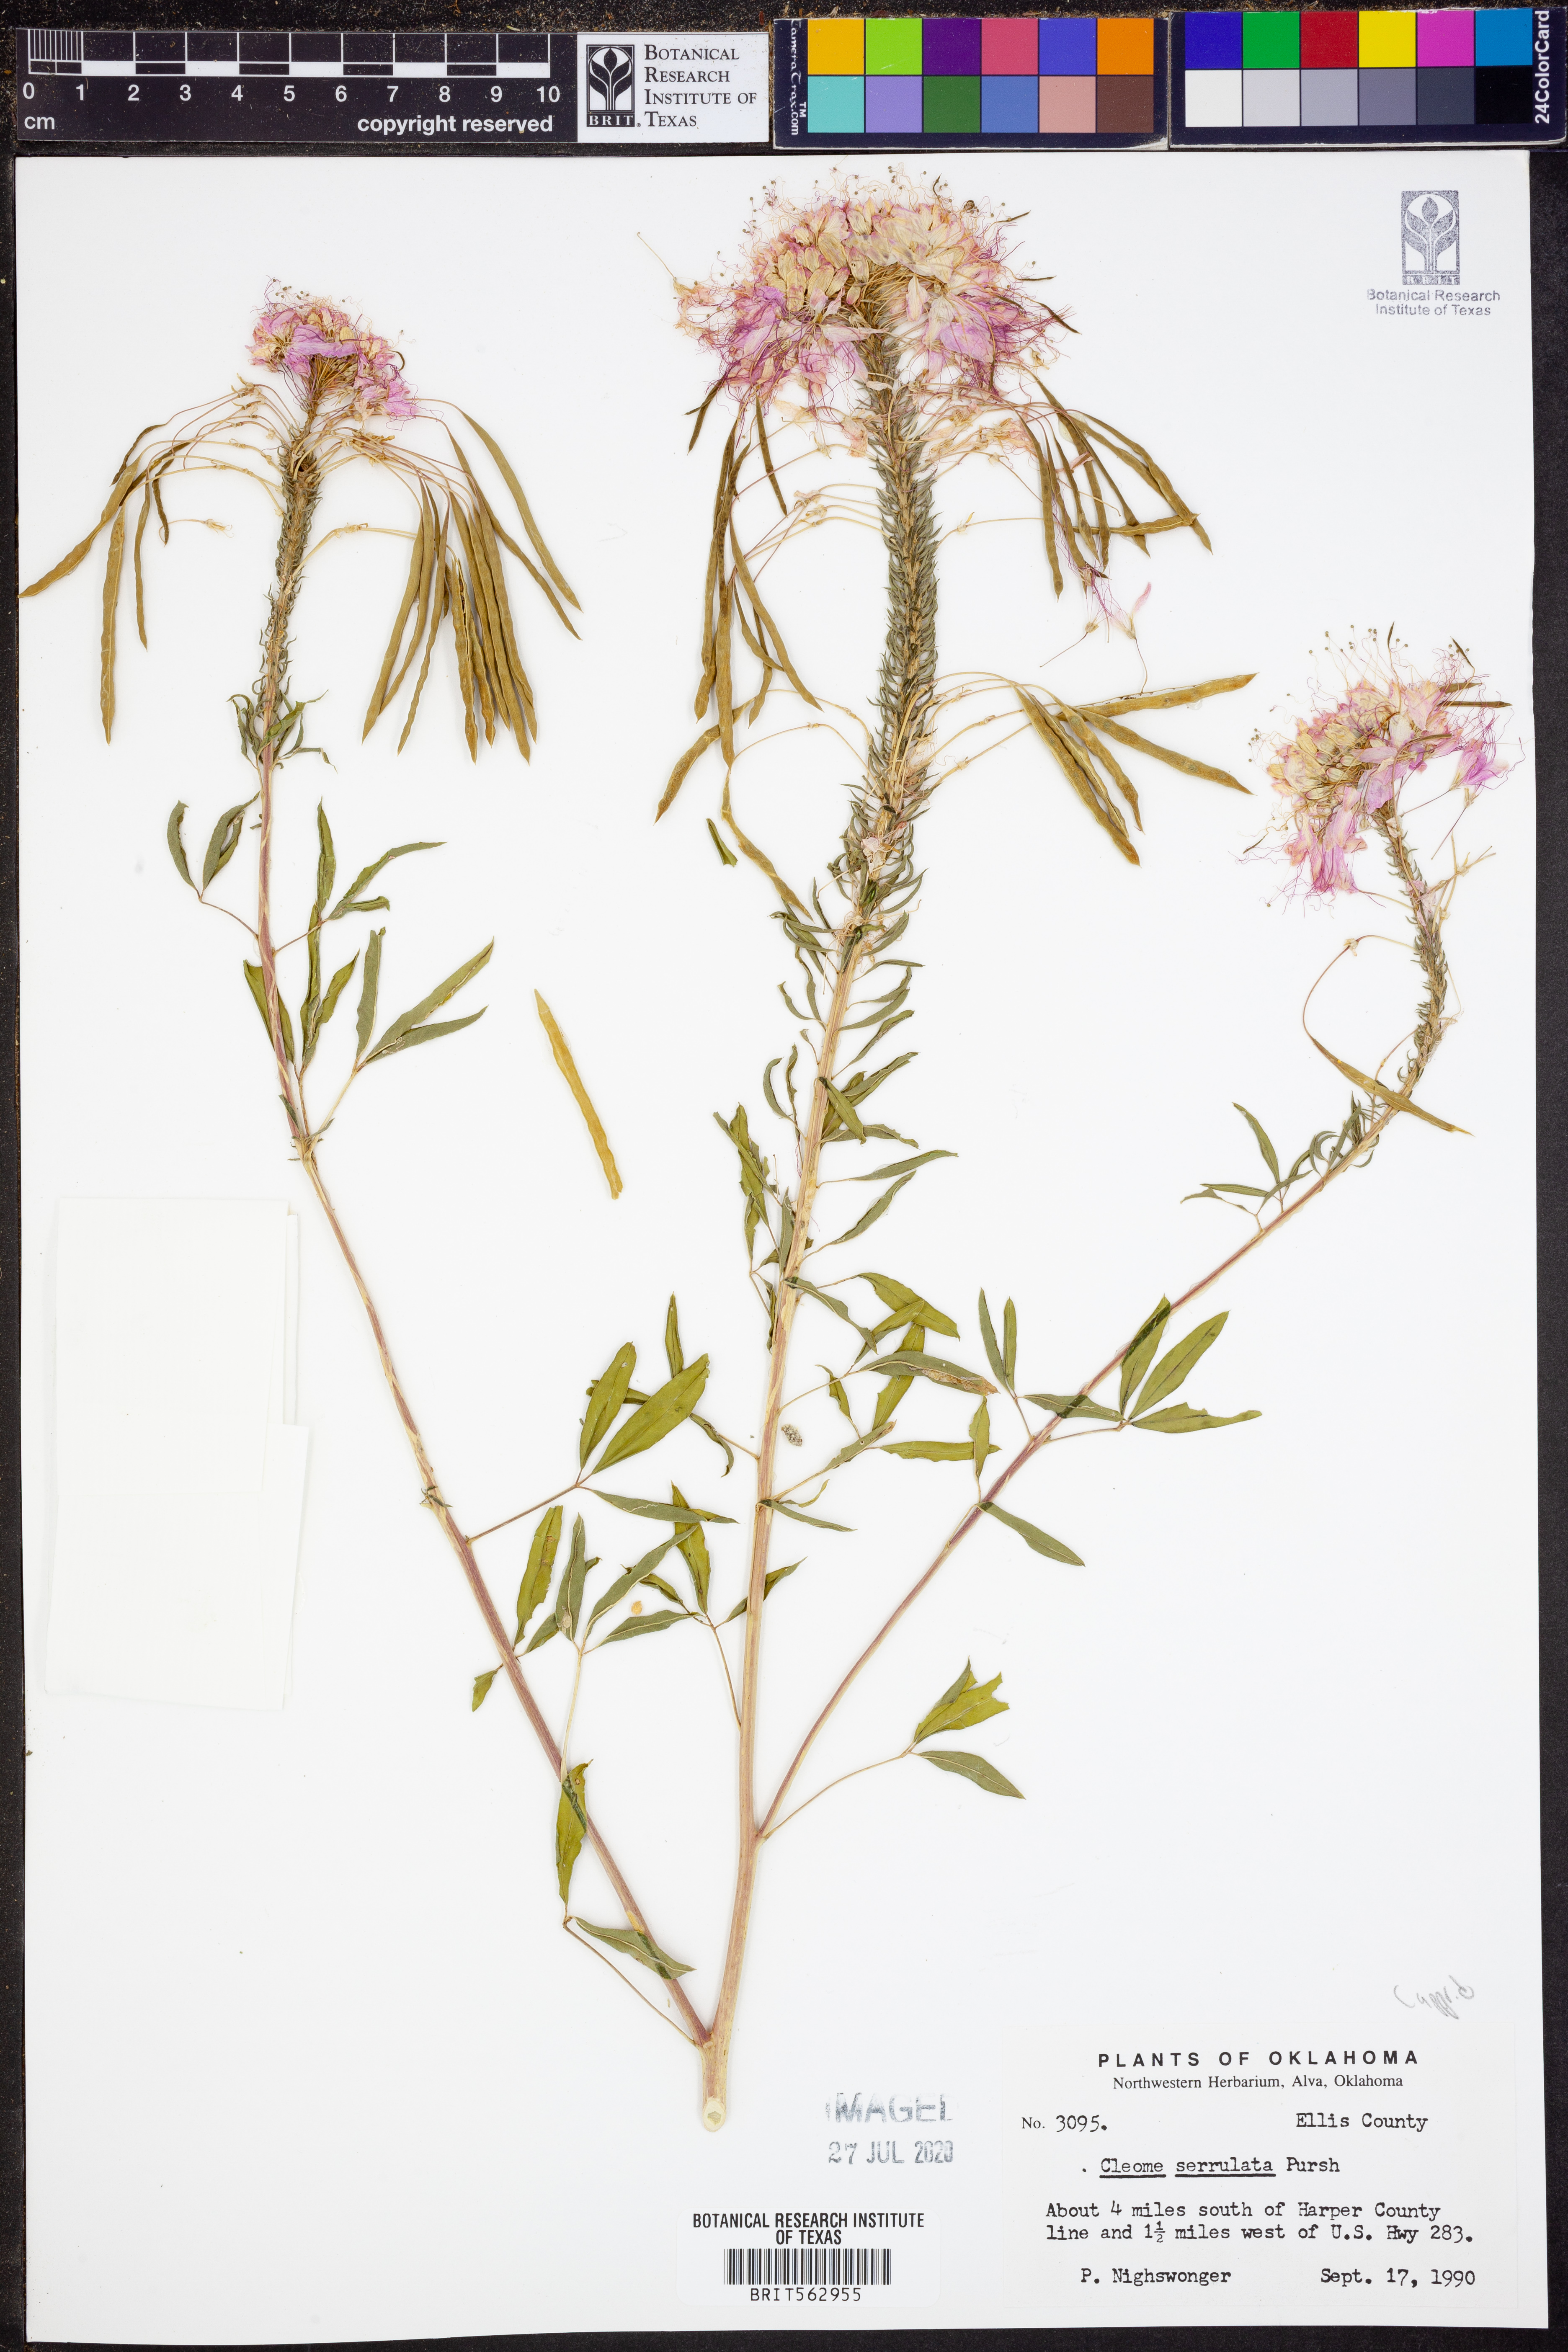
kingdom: Plantae
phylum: Tracheophyta
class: Magnoliopsida
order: Brassicales
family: Cleomaceae
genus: Cleomella
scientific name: Cleomella serrulata
